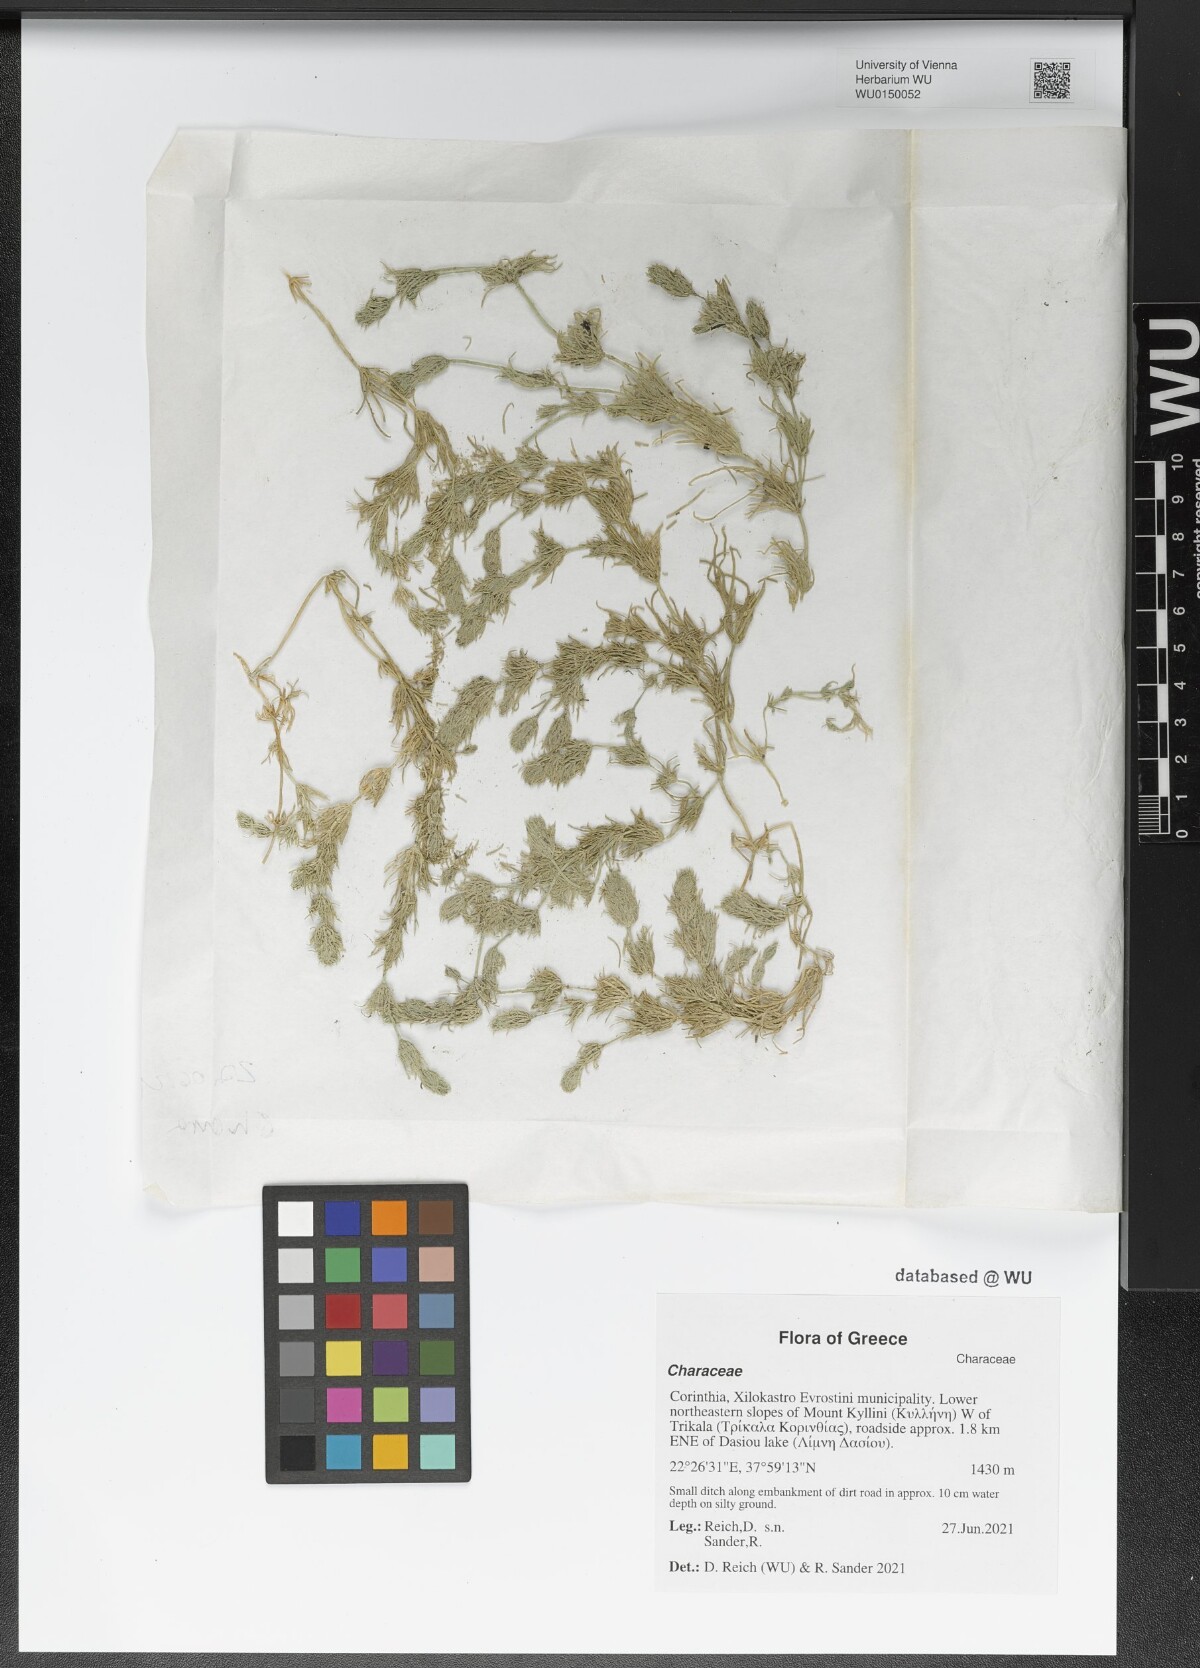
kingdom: Plantae
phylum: Charophyta
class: Charophyceae
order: Charales
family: Characeae
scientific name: Characeae
